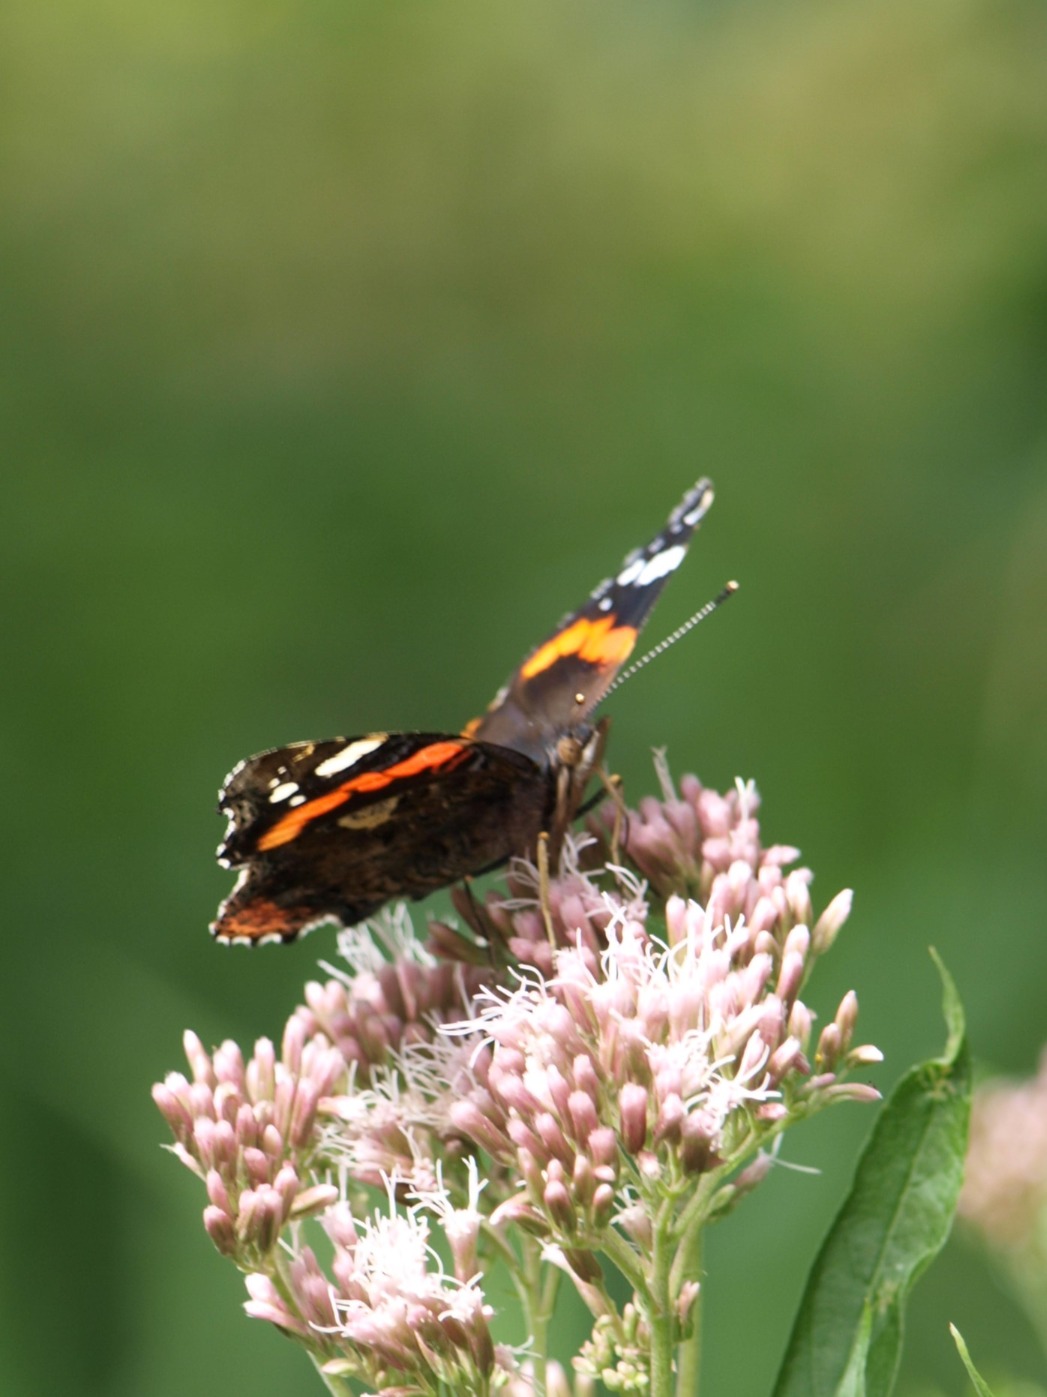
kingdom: Animalia
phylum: Arthropoda
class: Insecta
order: Lepidoptera
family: Nymphalidae
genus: Vanessa
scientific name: Vanessa atalanta
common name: Admiral
